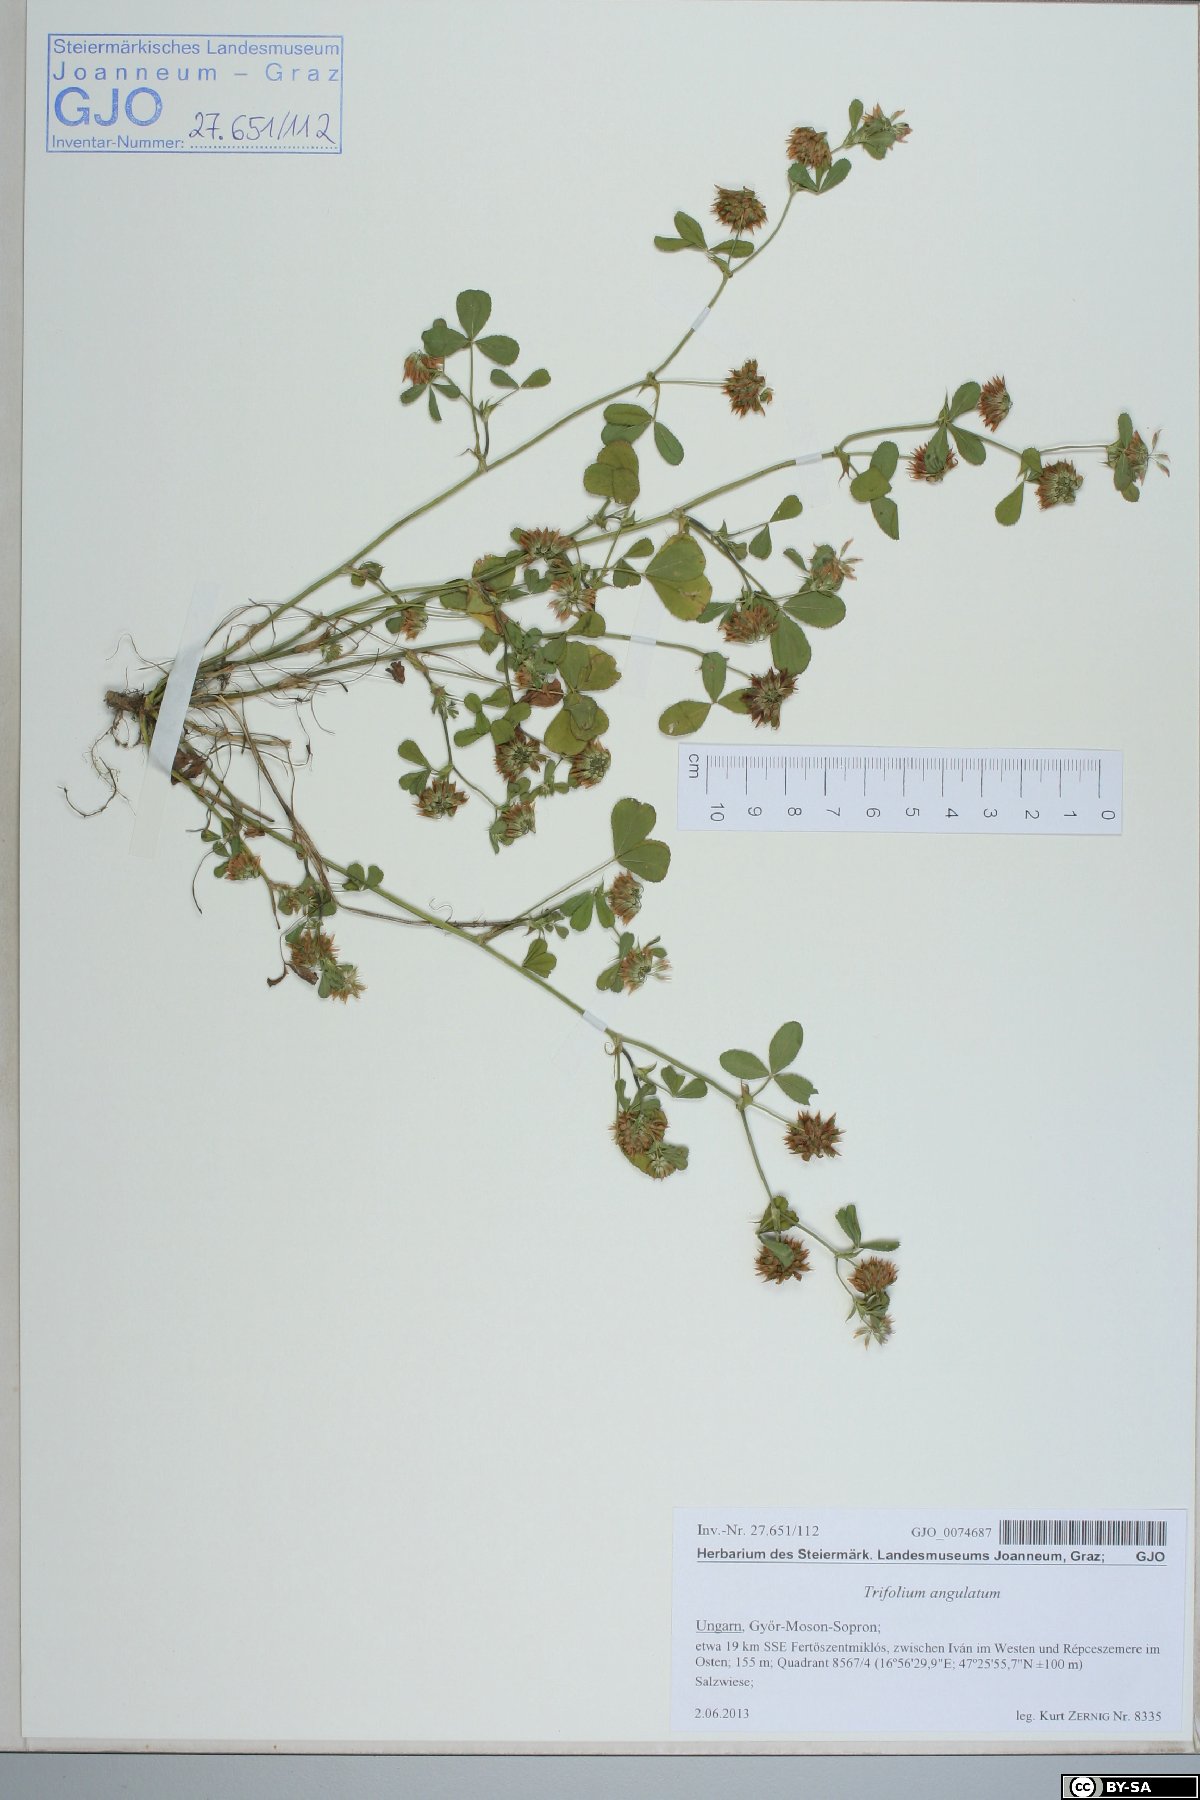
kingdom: Plantae
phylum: Tracheophyta
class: Magnoliopsida
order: Fabales
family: Fabaceae
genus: Trifolium
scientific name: Trifolium angulatum
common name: Angled clover
